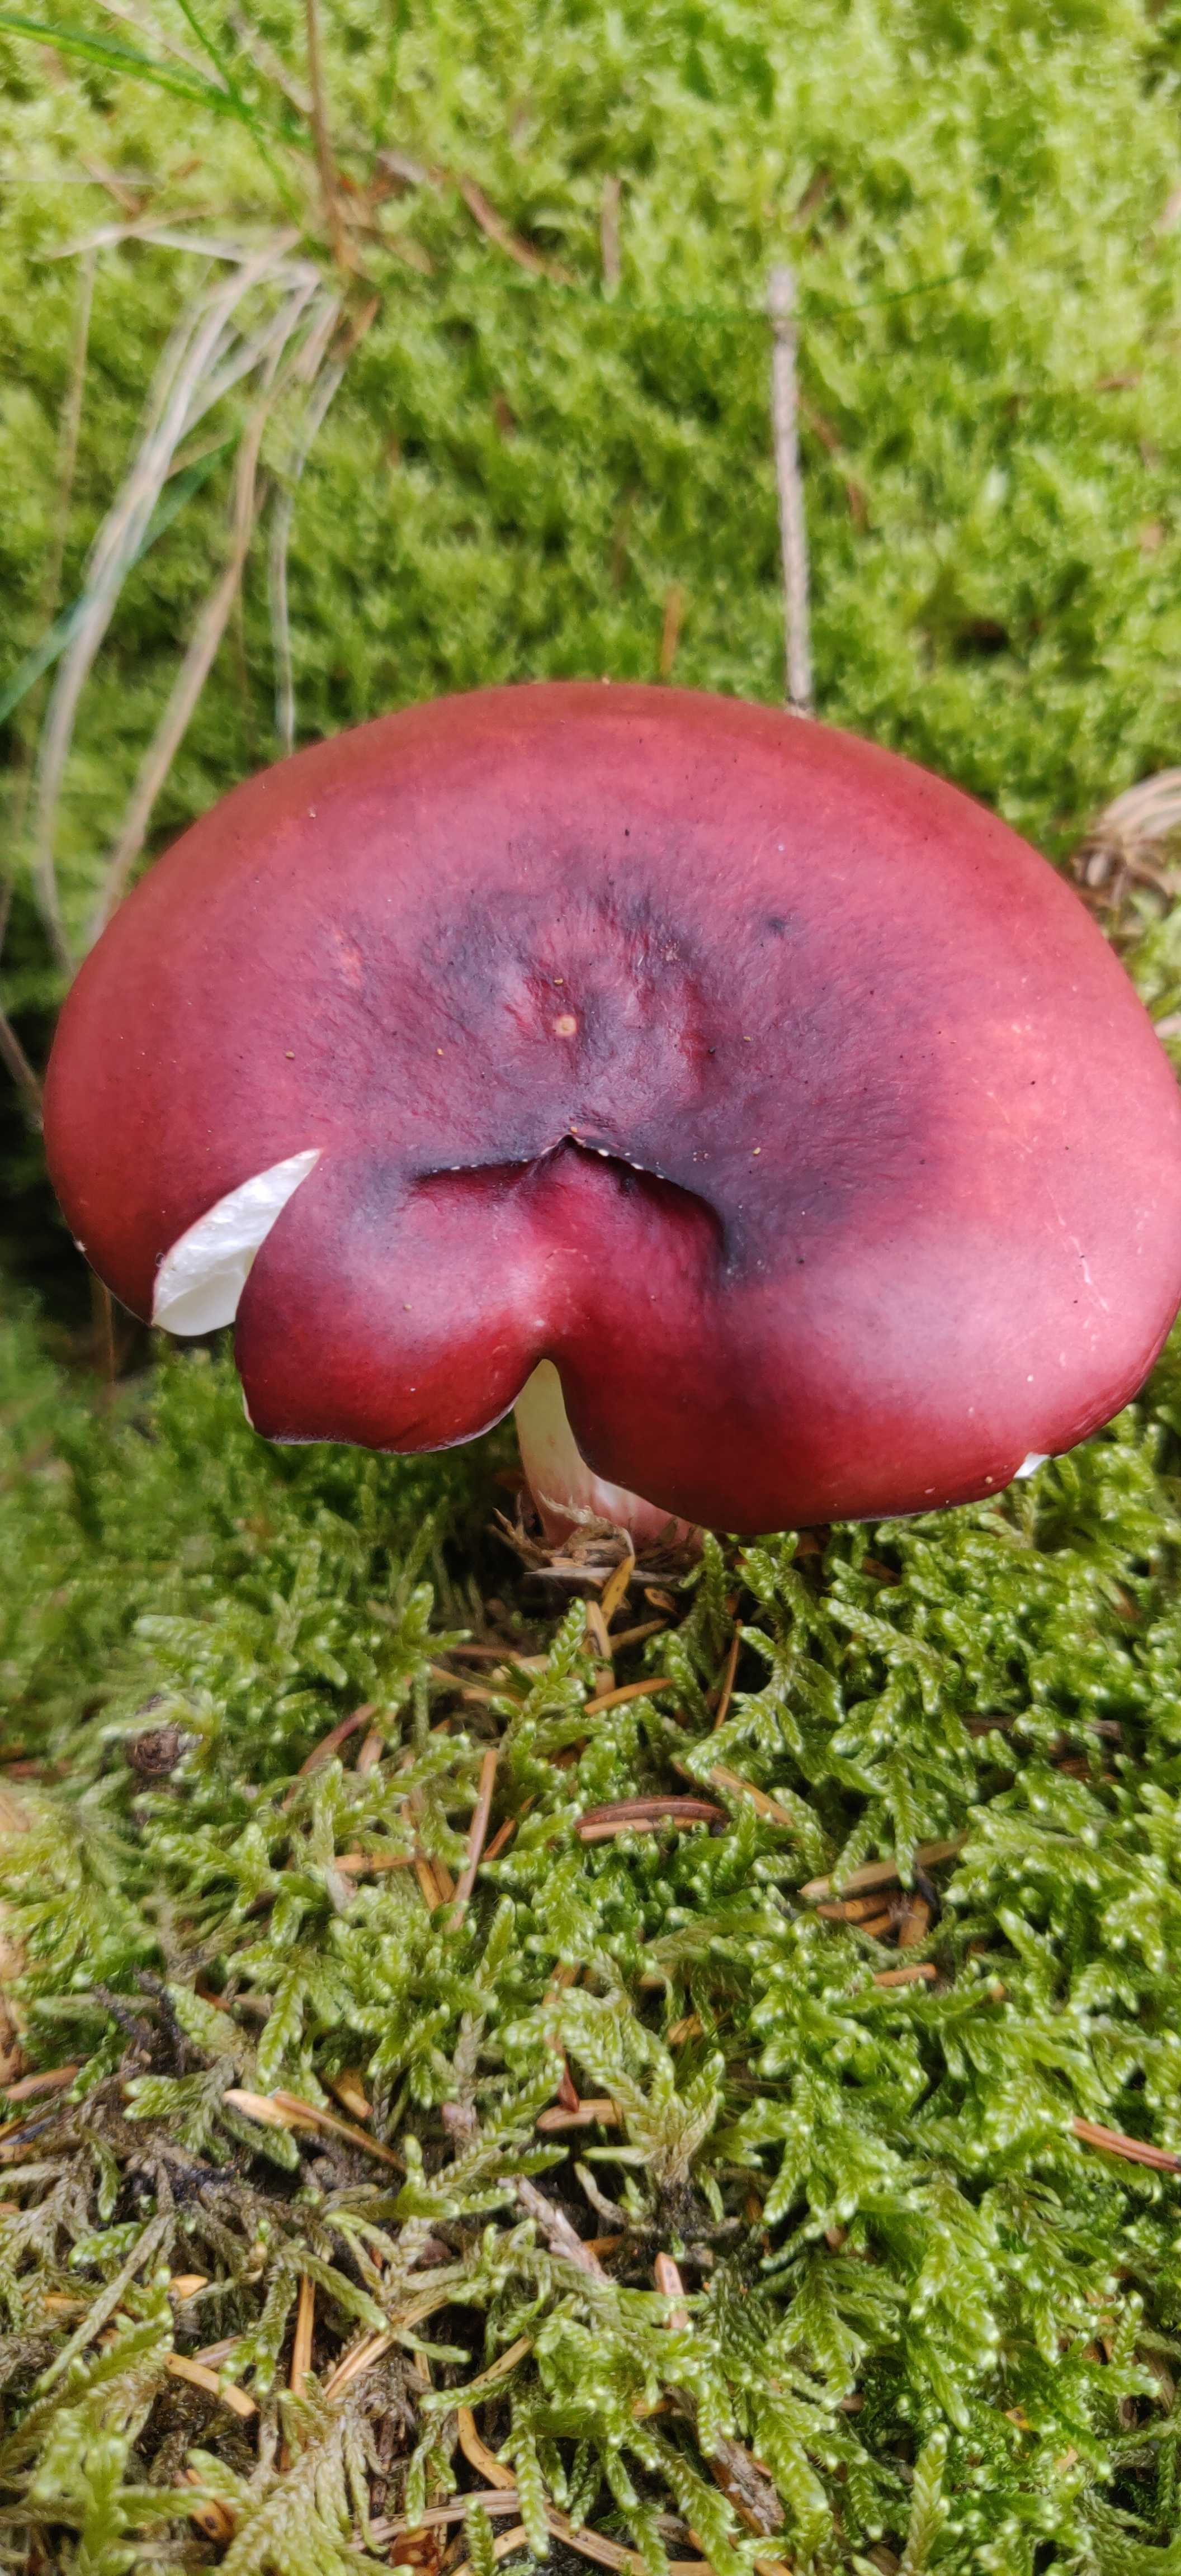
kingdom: Fungi
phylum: Basidiomycota
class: Agaricomycetes
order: Russulales
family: Russulaceae
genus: Russula
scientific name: Russula queletii
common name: Quélets skørhat
